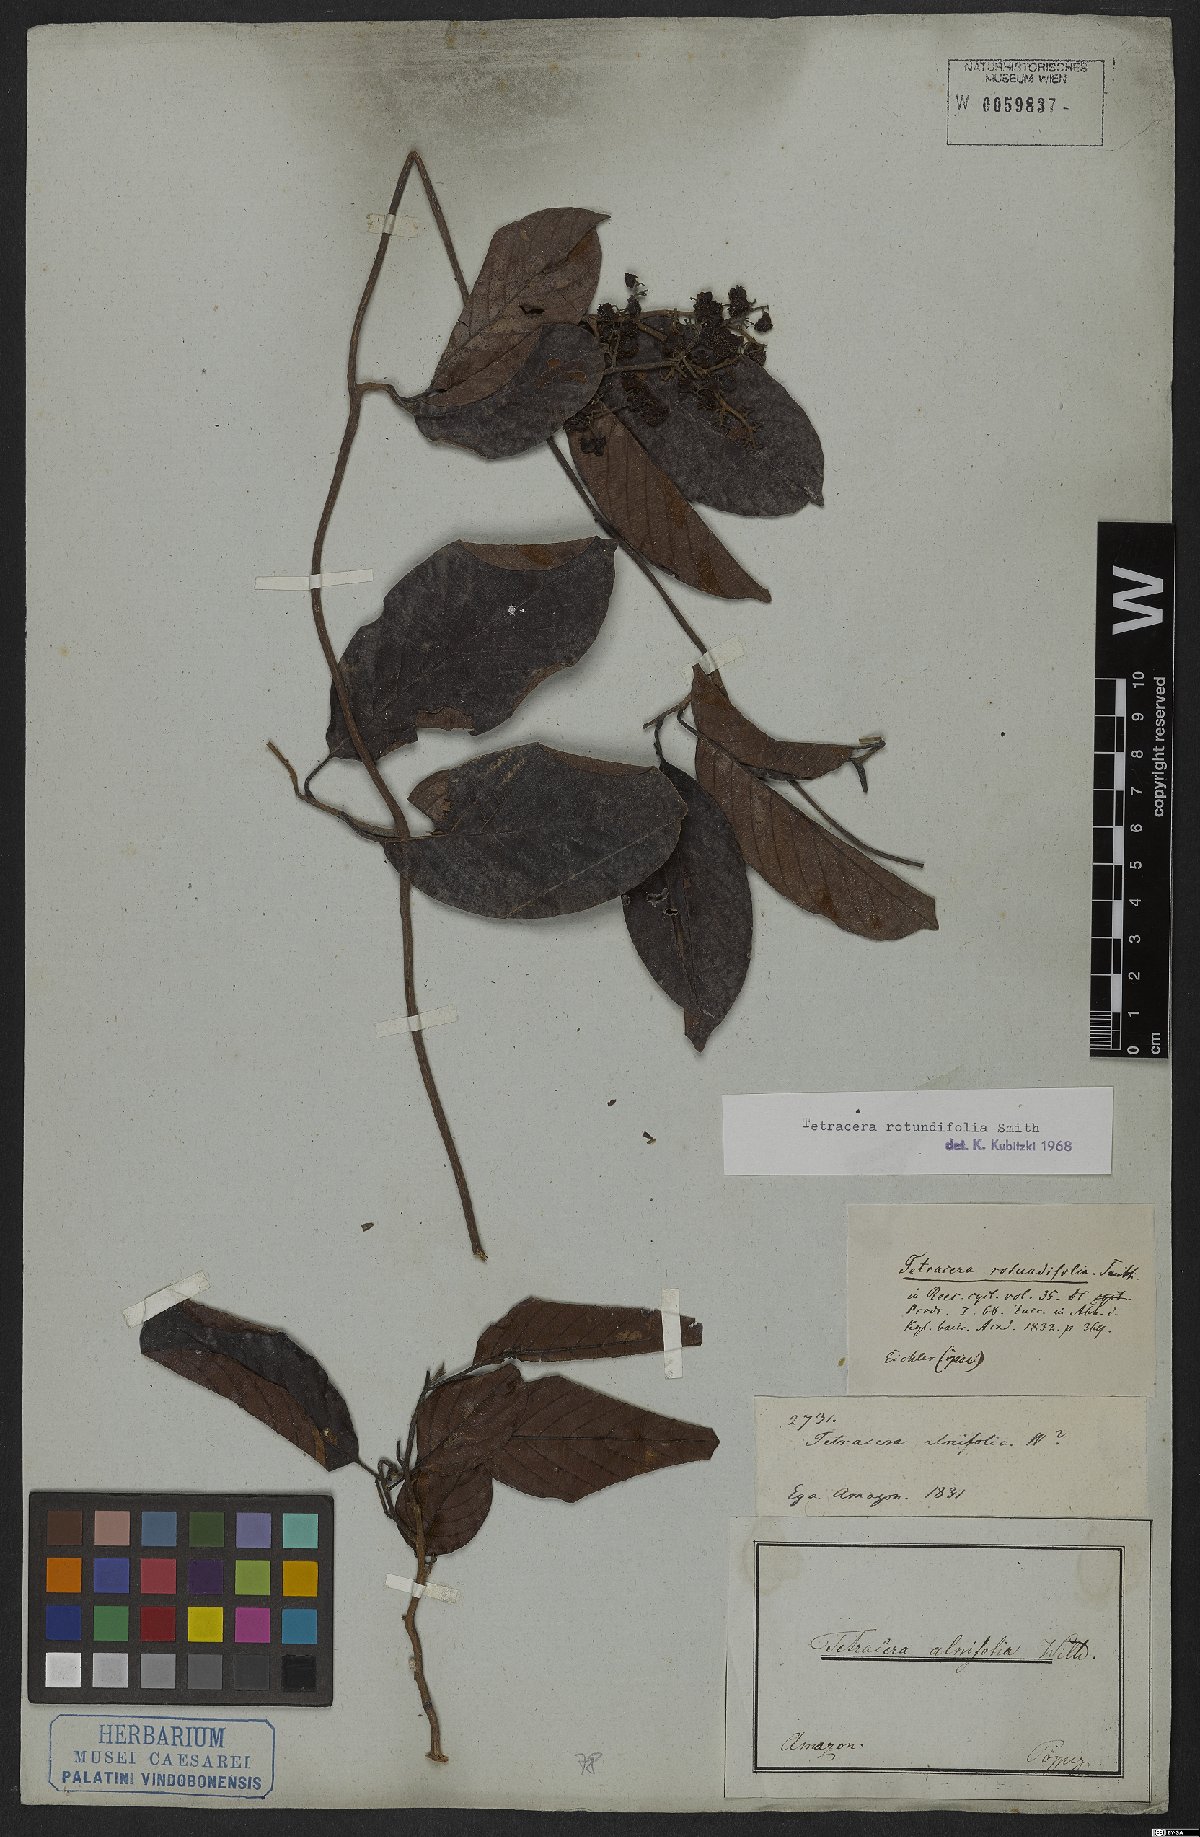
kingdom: Plantae
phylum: Tracheophyta
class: Magnoliopsida
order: Dilleniales
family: Dilleniaceae
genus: Tetracera
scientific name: Tetracera rotundifolia
